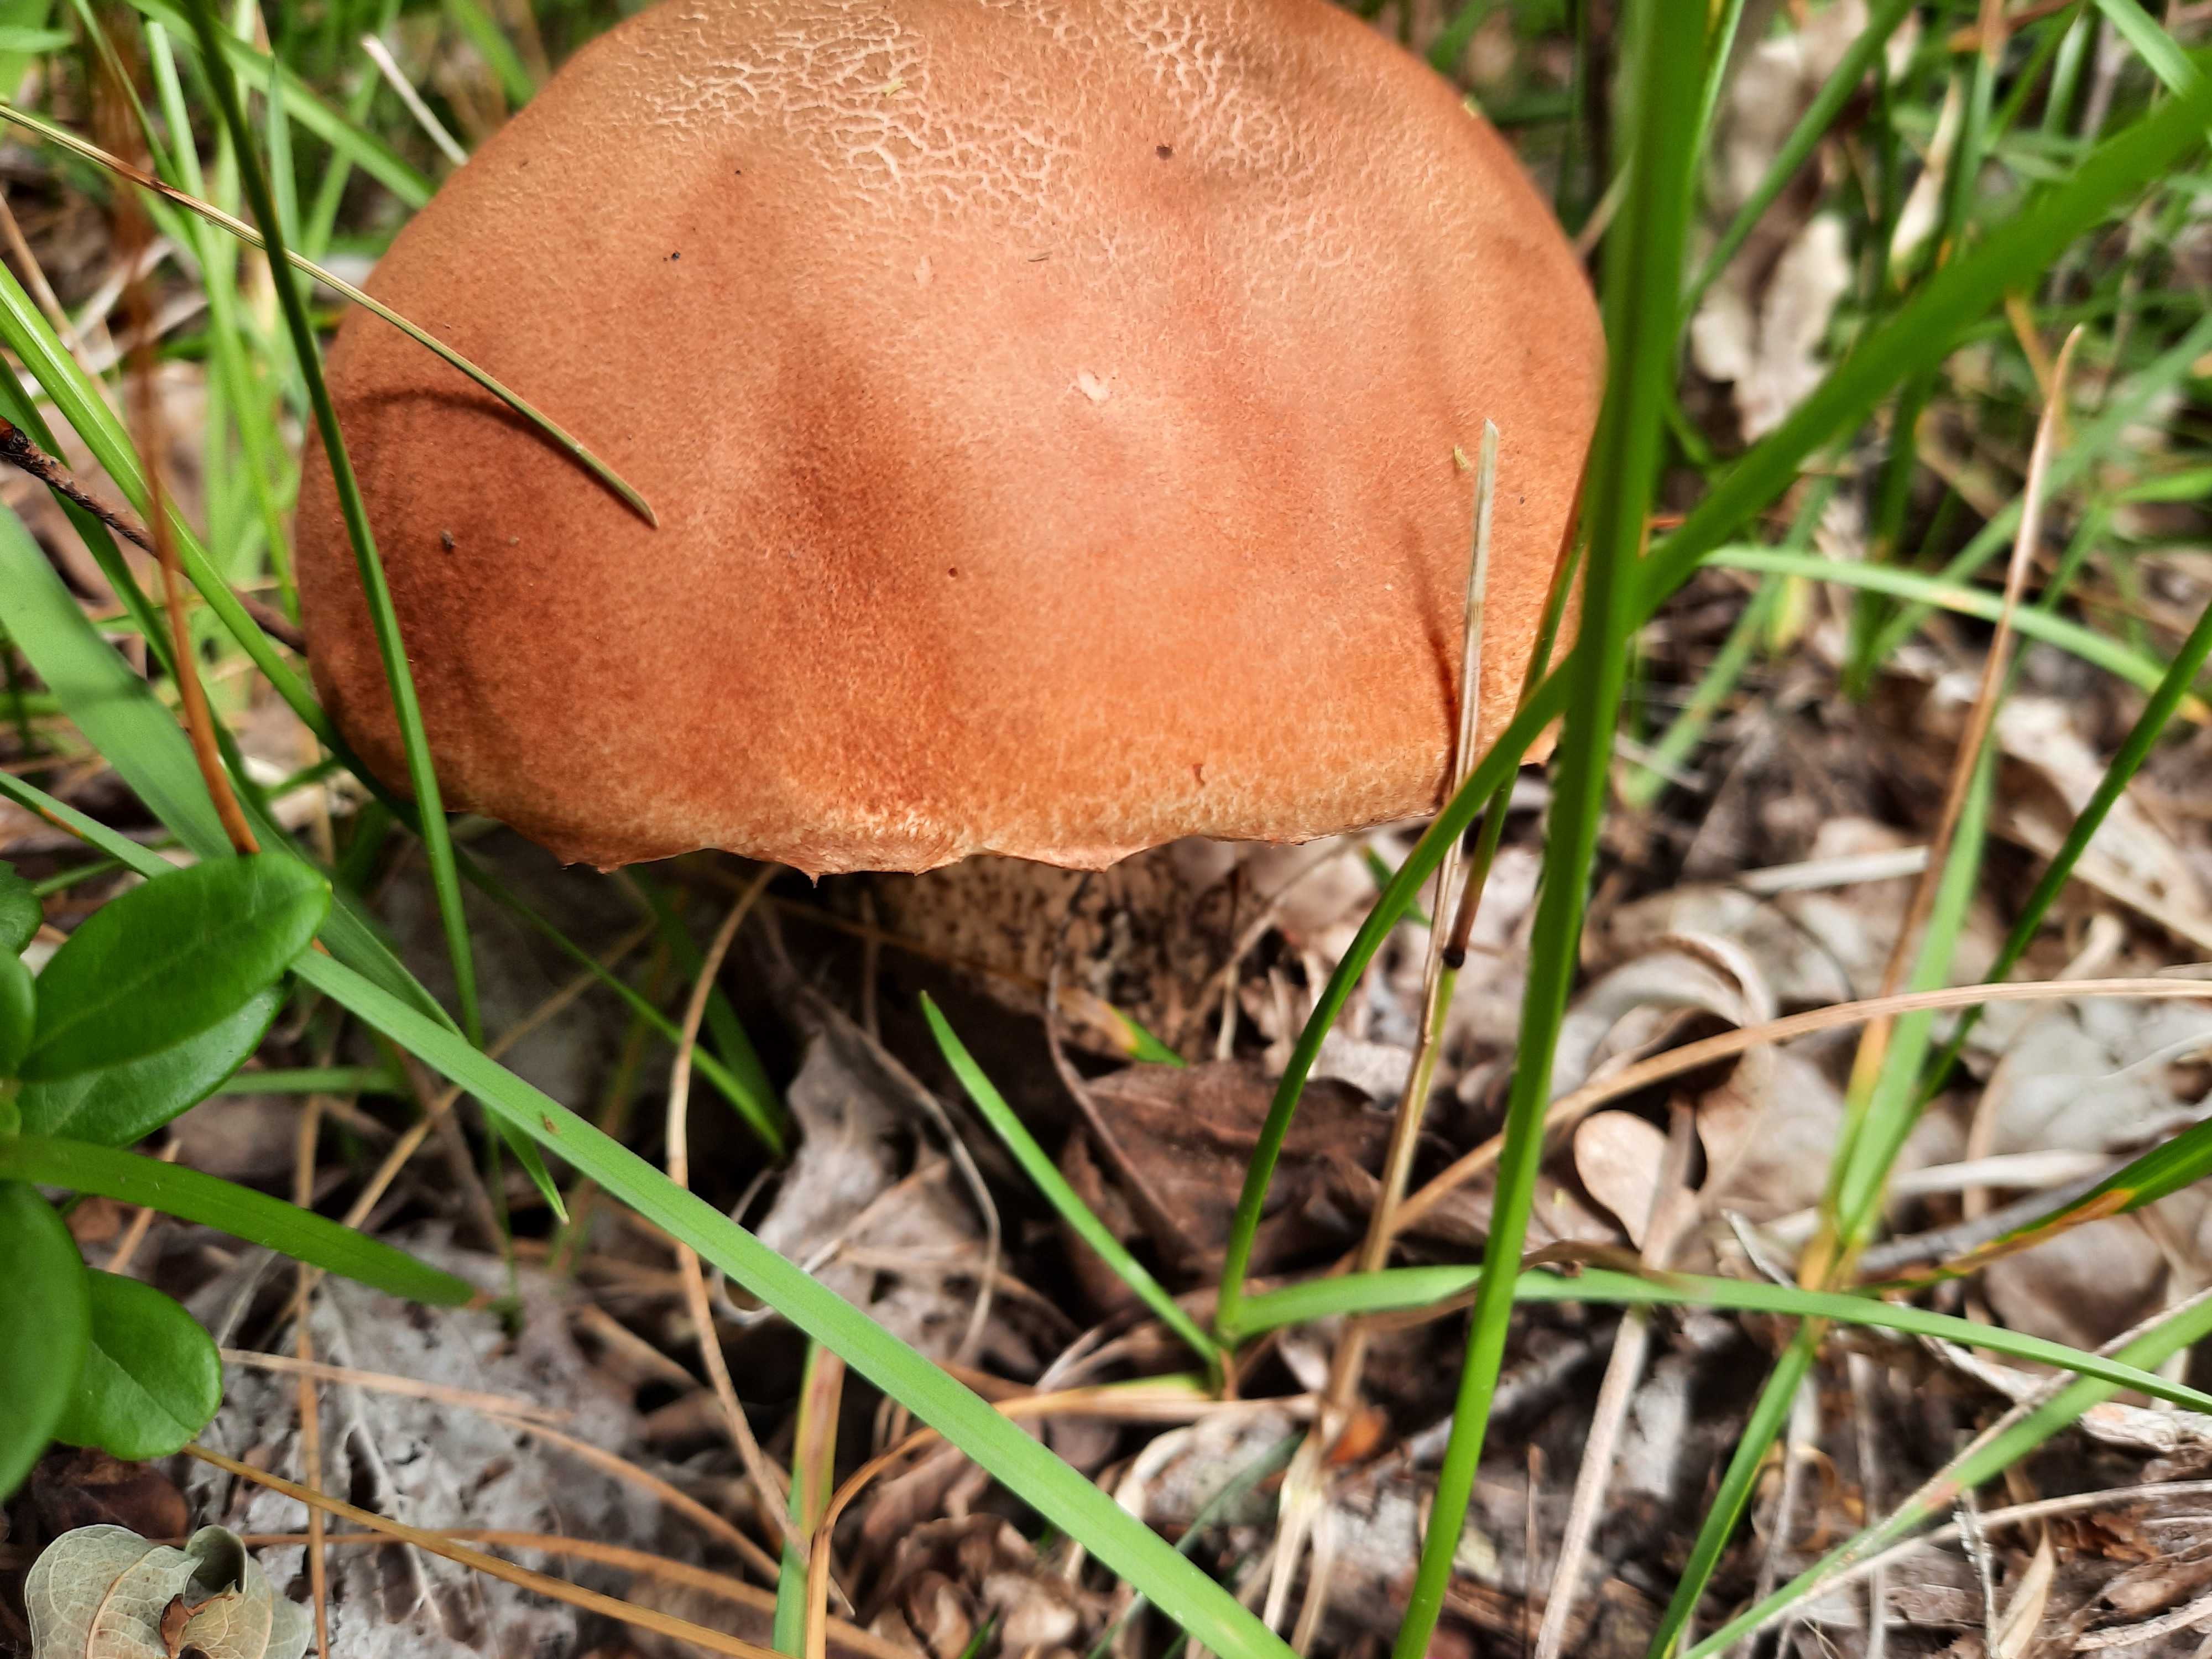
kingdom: Fungi
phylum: Basidiomycota
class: Agaricomycetes
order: Boletales
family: Boletaceae
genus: Leccinum
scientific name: Leccinum albostipitatum
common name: aspe-skælrørhat
